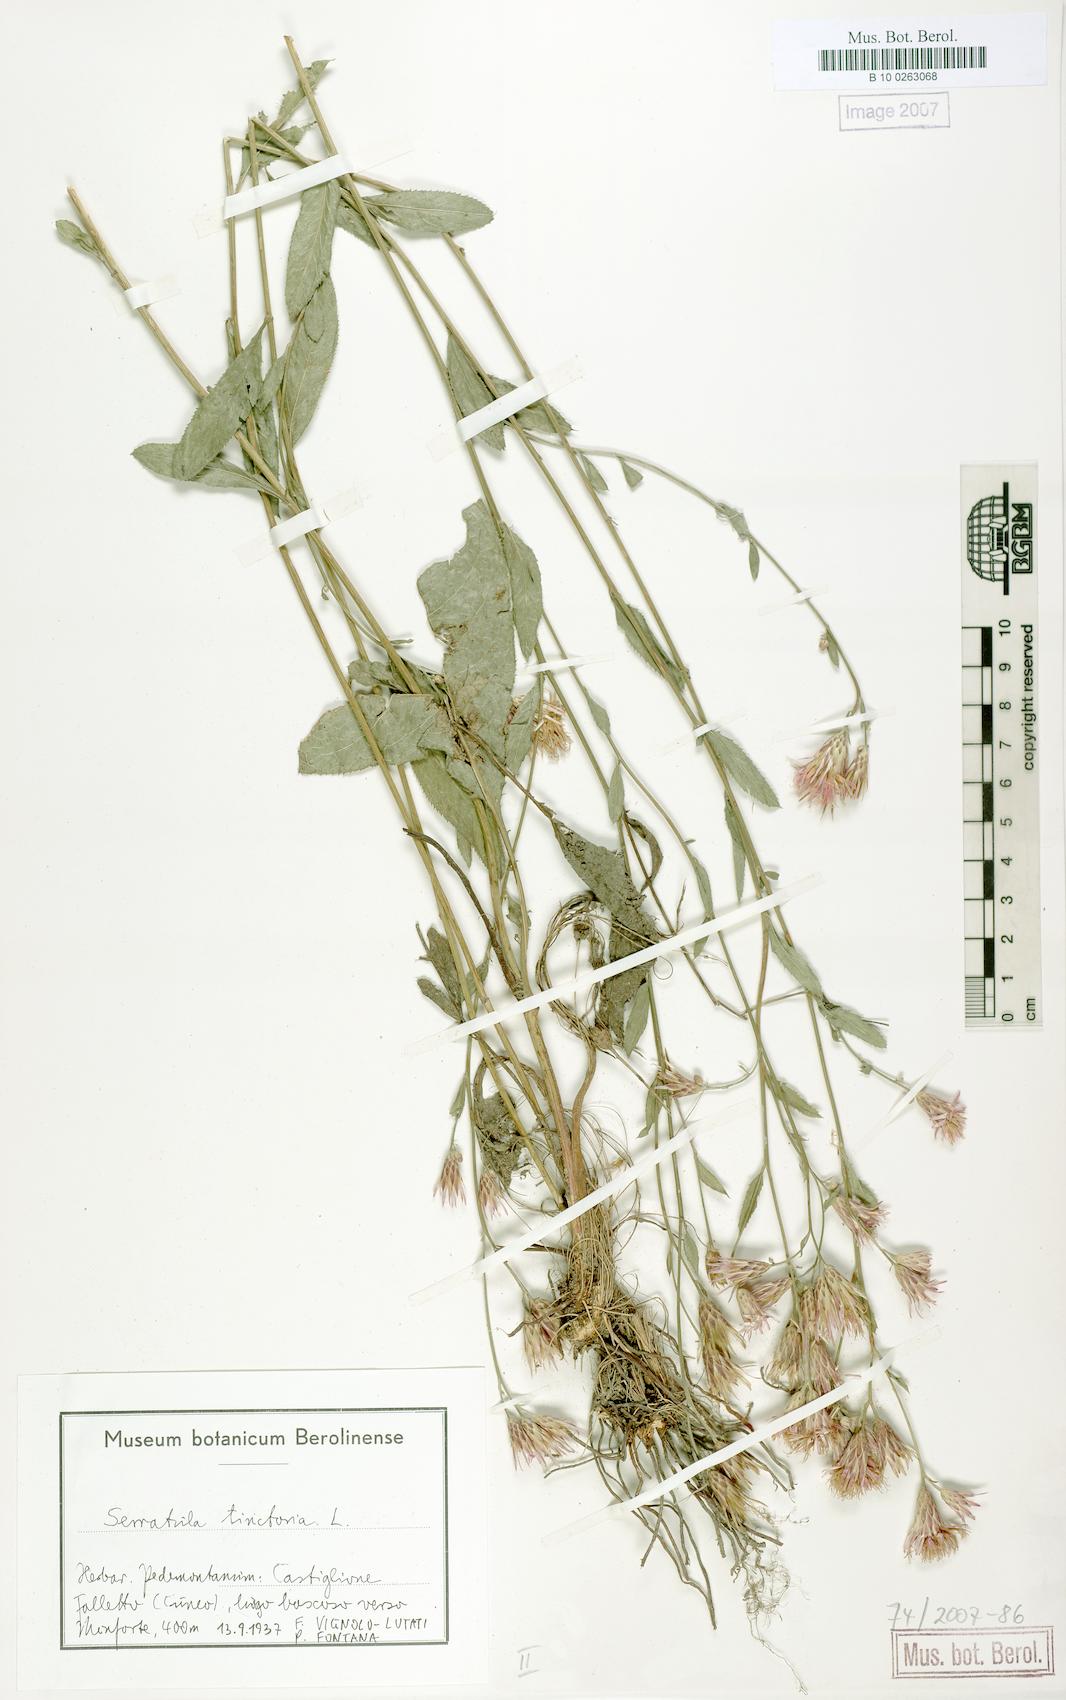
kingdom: Plantae
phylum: Tracheophyta
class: Magnoliopsida
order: Asterales
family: Asteraceae
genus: Serratula
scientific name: Serratula tinctoria
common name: Saw-wort
